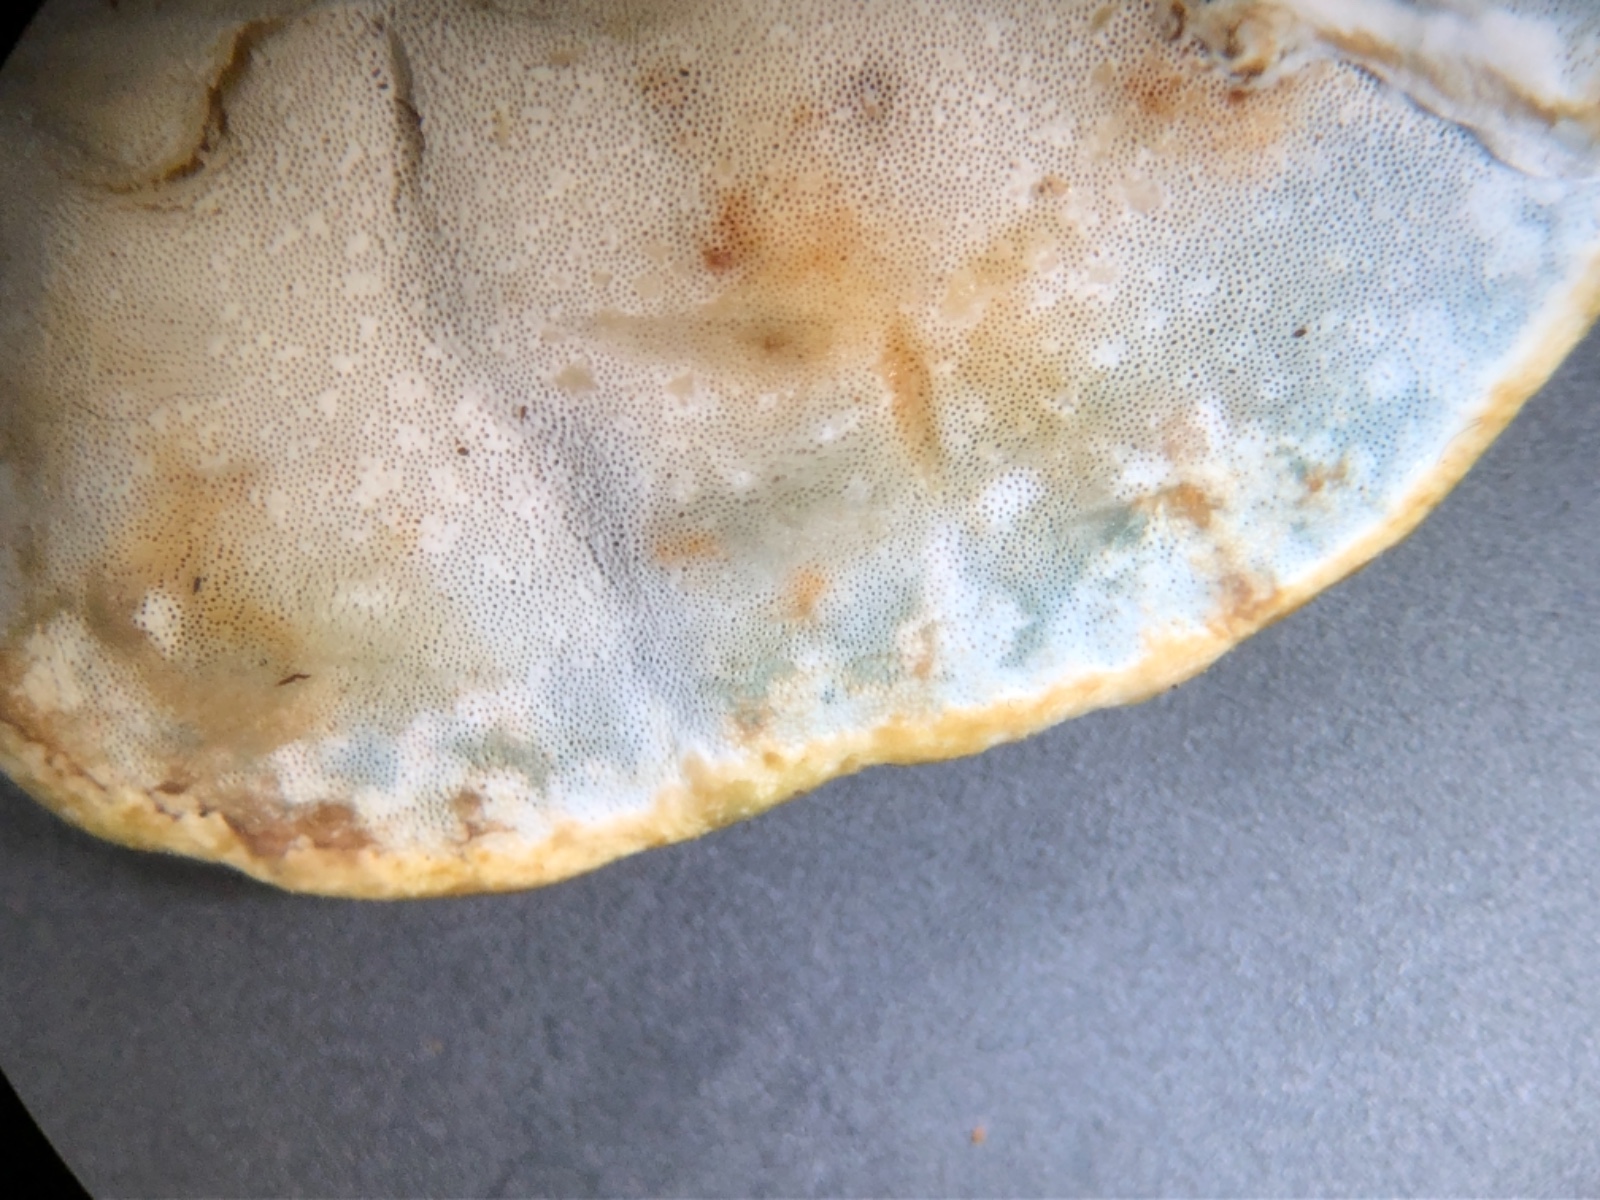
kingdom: Fungi
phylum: Basidiomycota
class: Agaricomycetes
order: Polyporales
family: Incrustoporiaceae
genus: Skeletocutis
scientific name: Skeletocutis nemoralis
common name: stor krystalporesvamp
